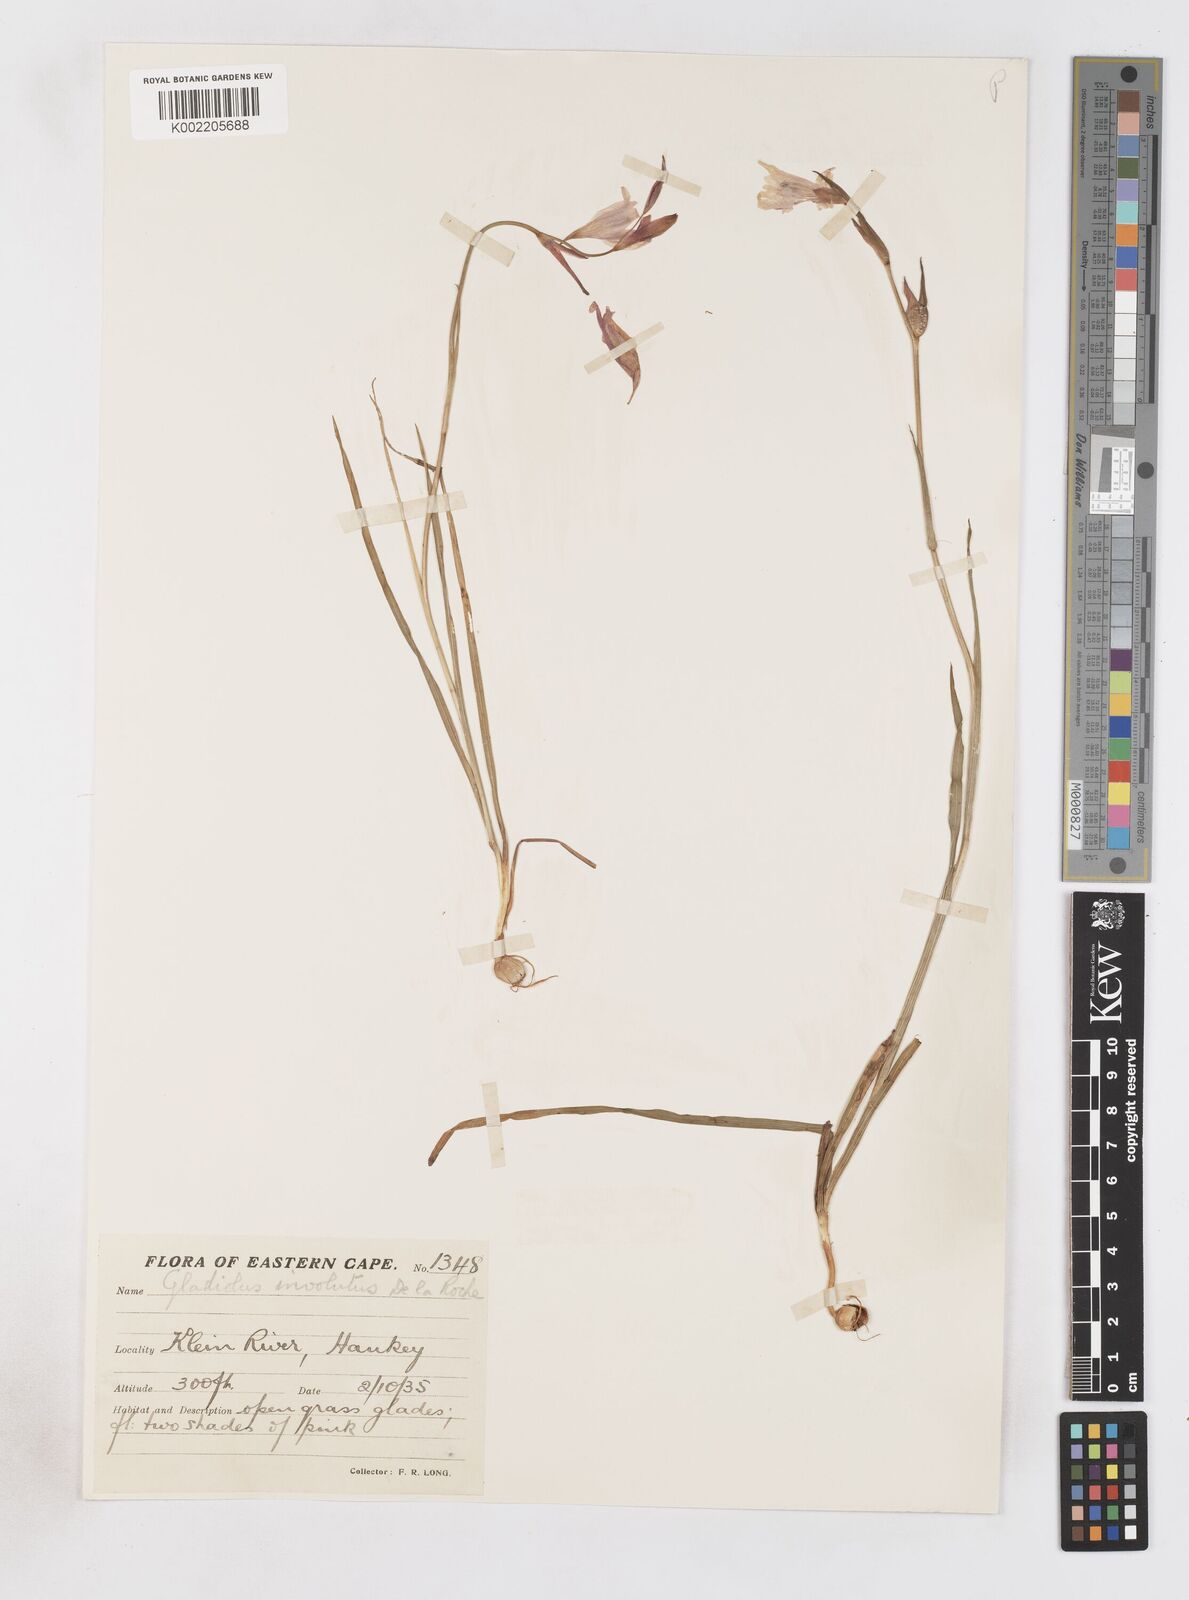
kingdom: Plantae
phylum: Tracheophyta
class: Liliopsida
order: Asparagales
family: Iridaceae
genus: Gladiolus
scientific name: Gladiolus involutus
